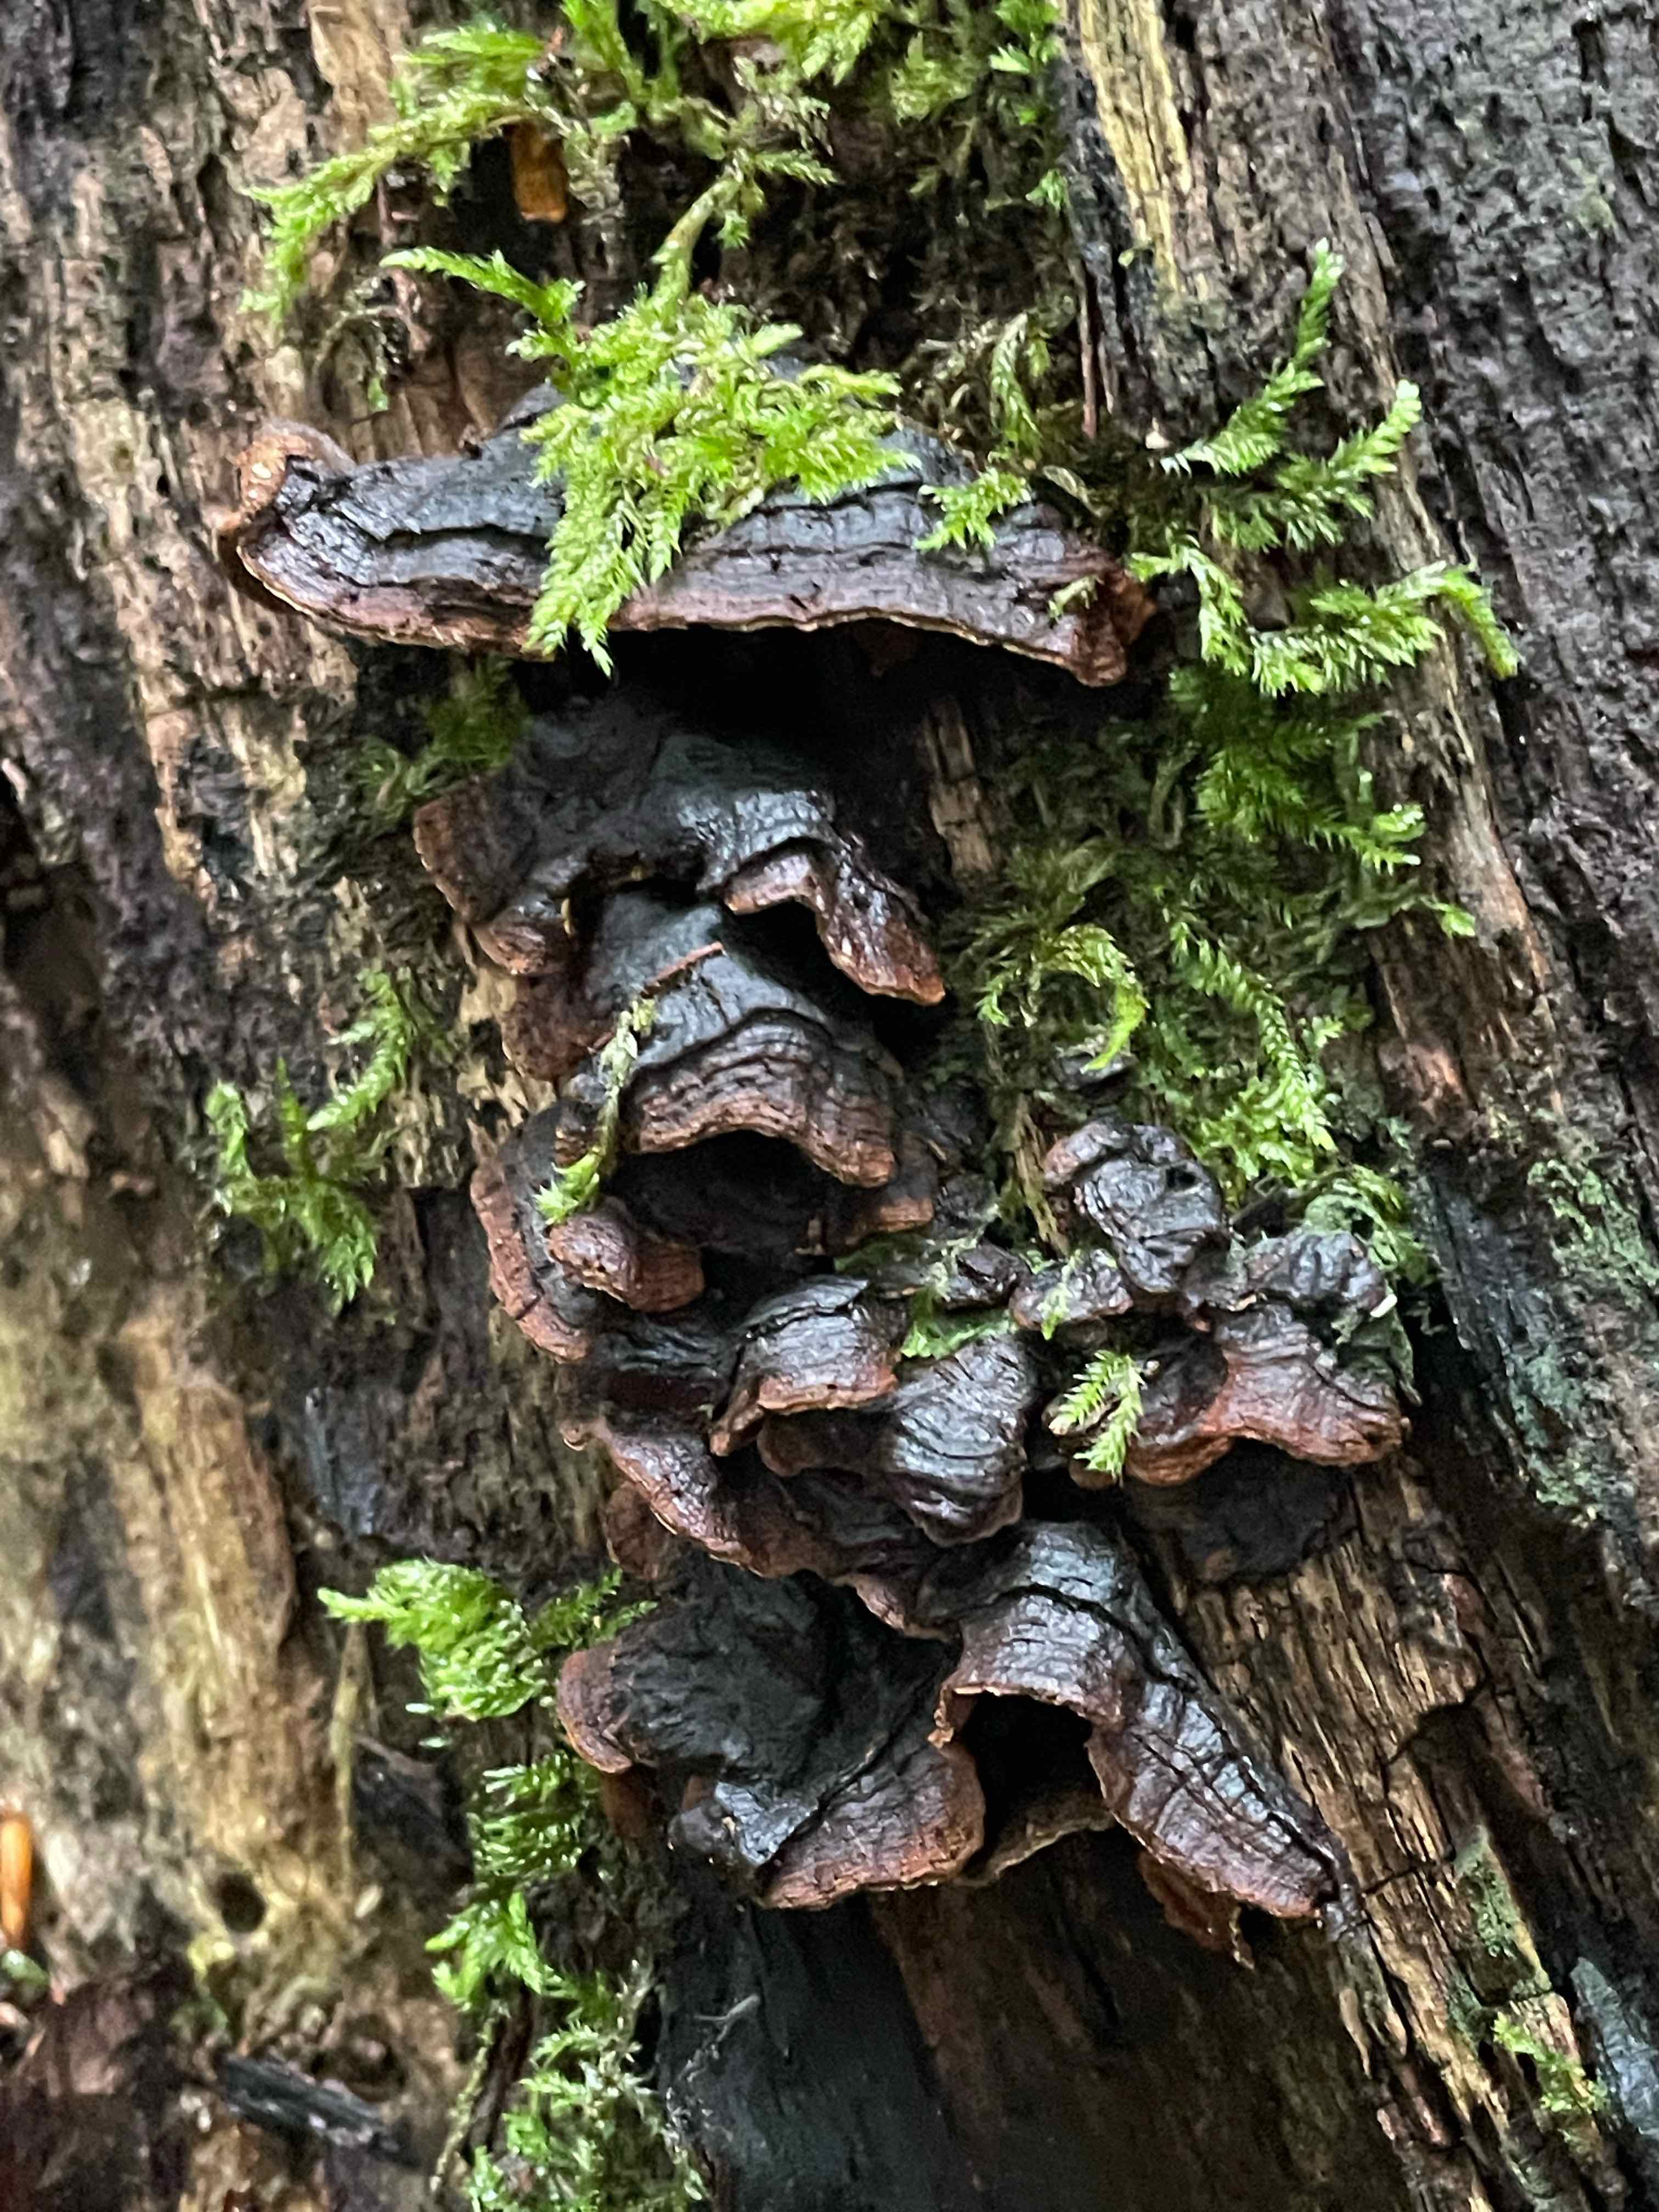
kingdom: Fungi
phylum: Basidiomycota
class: Agaricomycetes
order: Hymenochaetales
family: Hymenochaetaceae
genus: Hymenochaete
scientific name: Hymenochaete rubiginosa
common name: stiv ruslædersvamp
